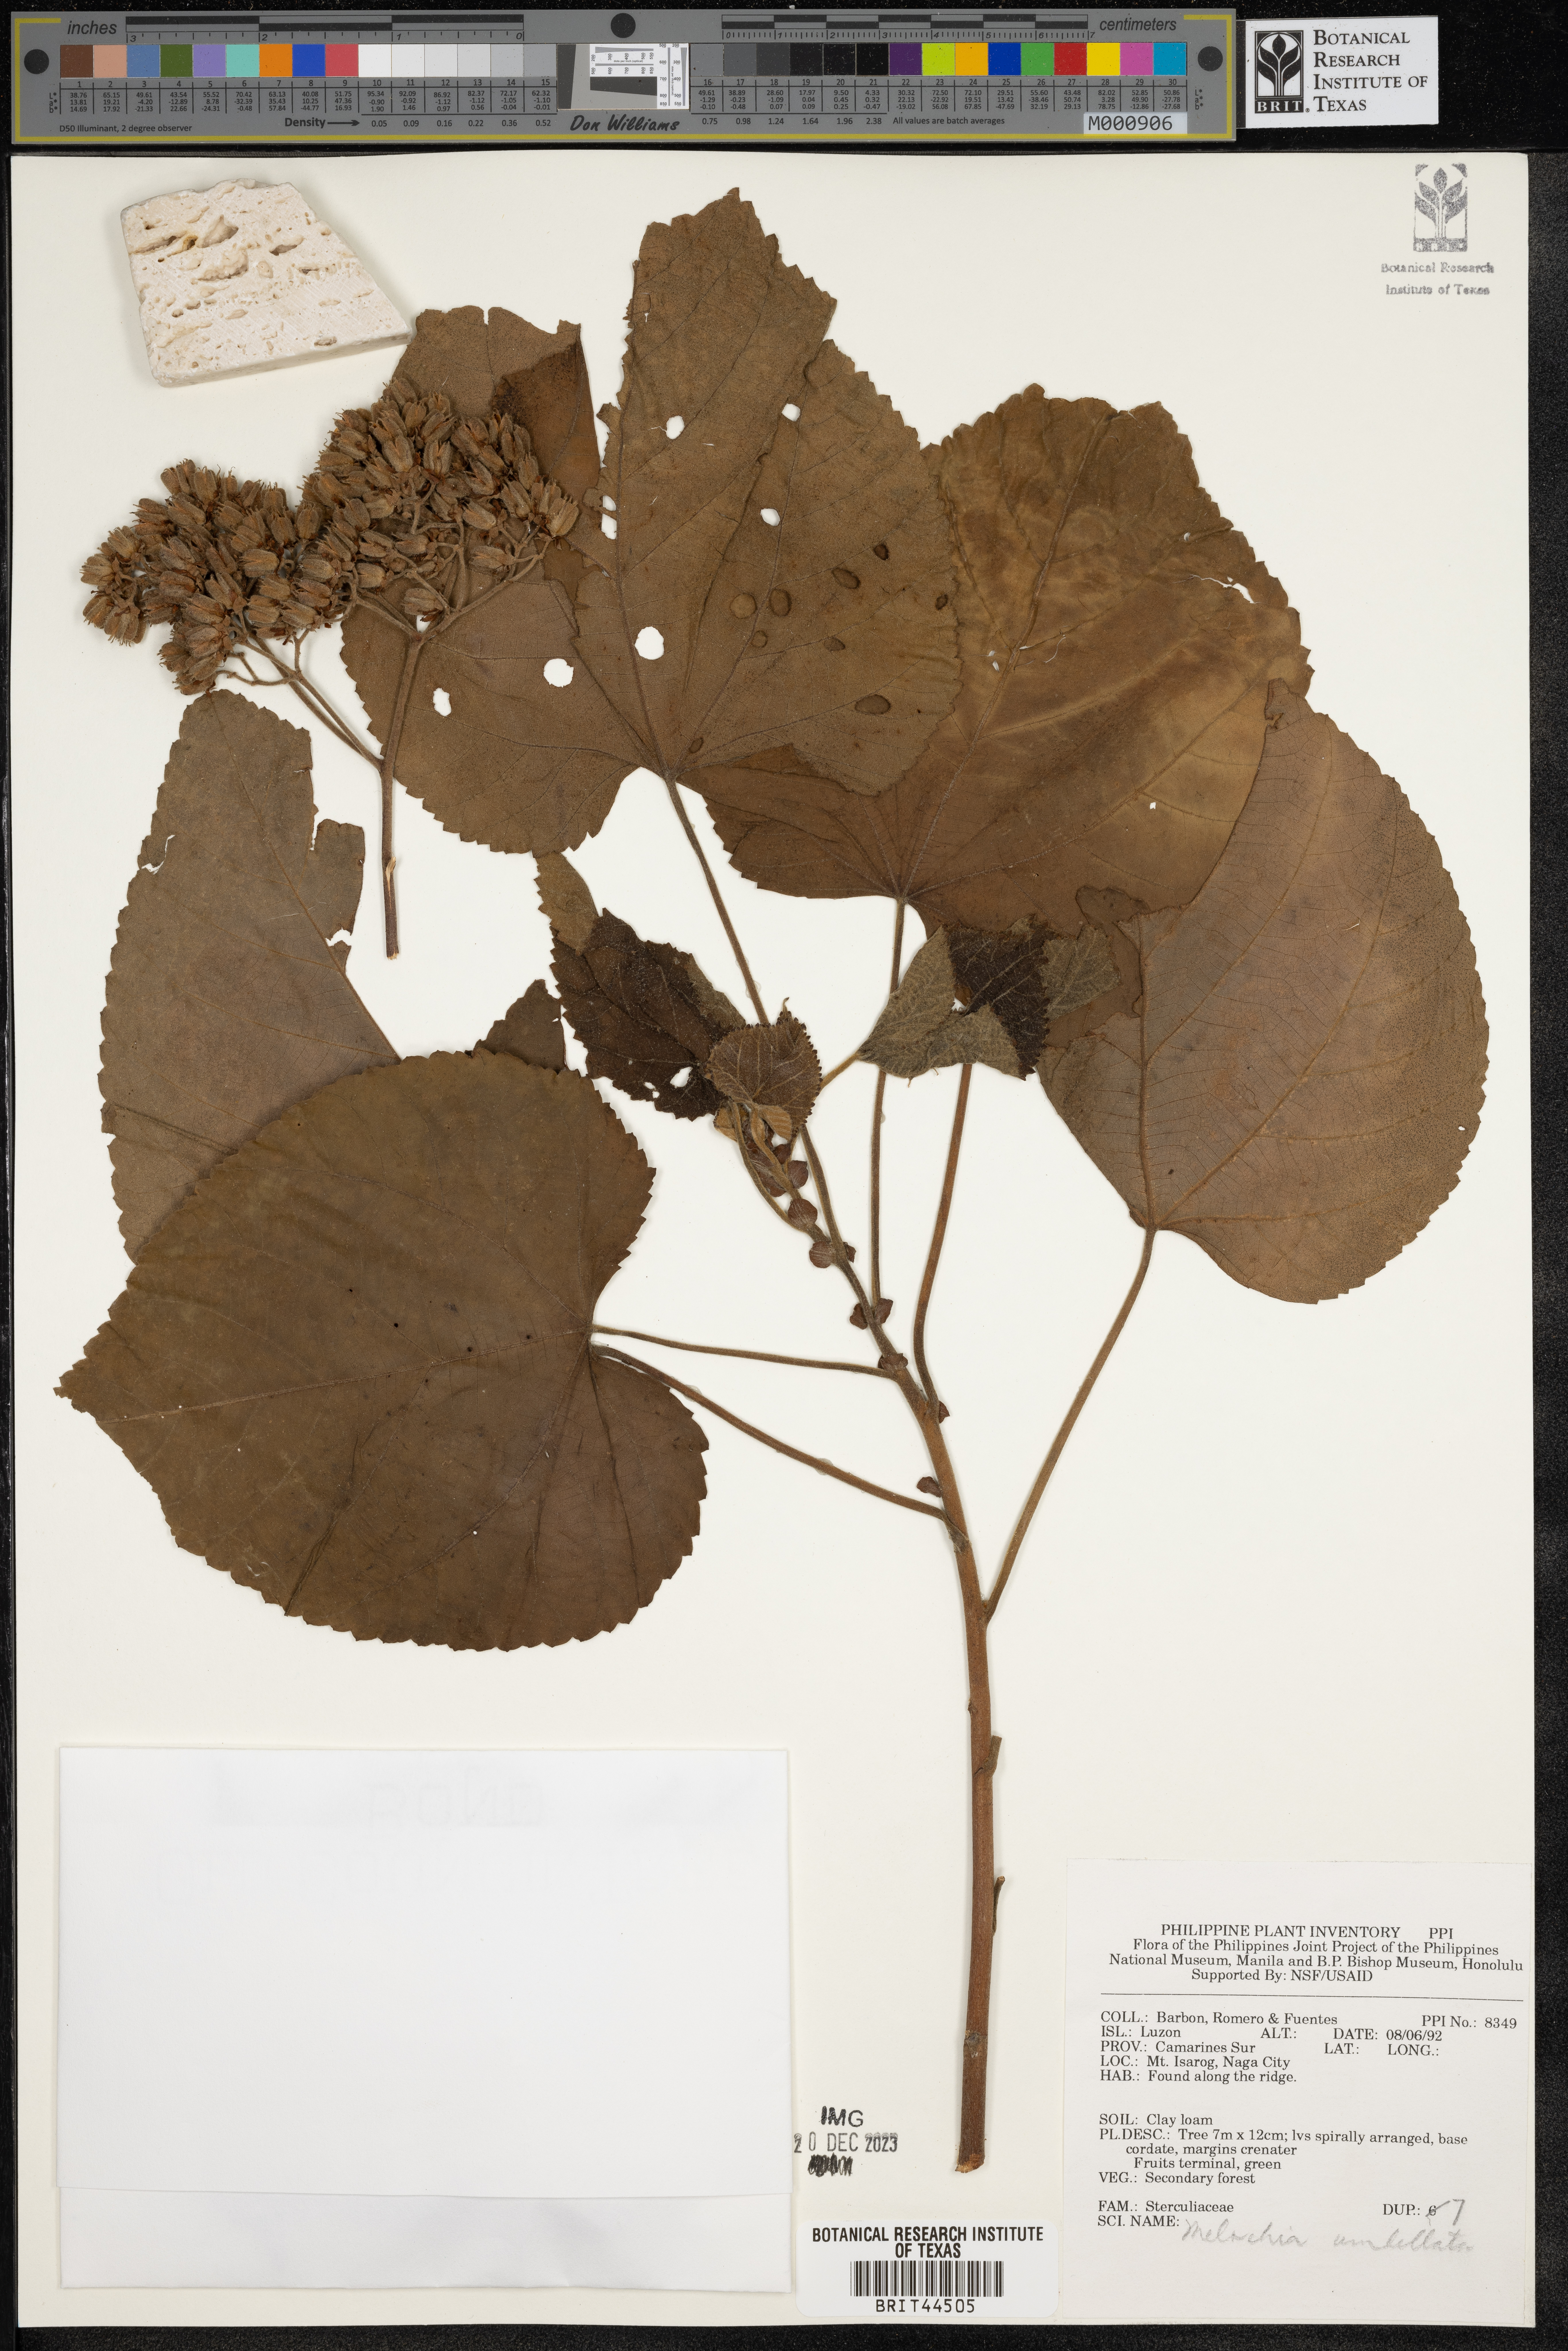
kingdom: Plantae
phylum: Tracheophyta
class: Magnoliopsida
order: Malvales
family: Malvaceae
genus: Melochia
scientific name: Melochia umbellata
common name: Gunpowder tree
